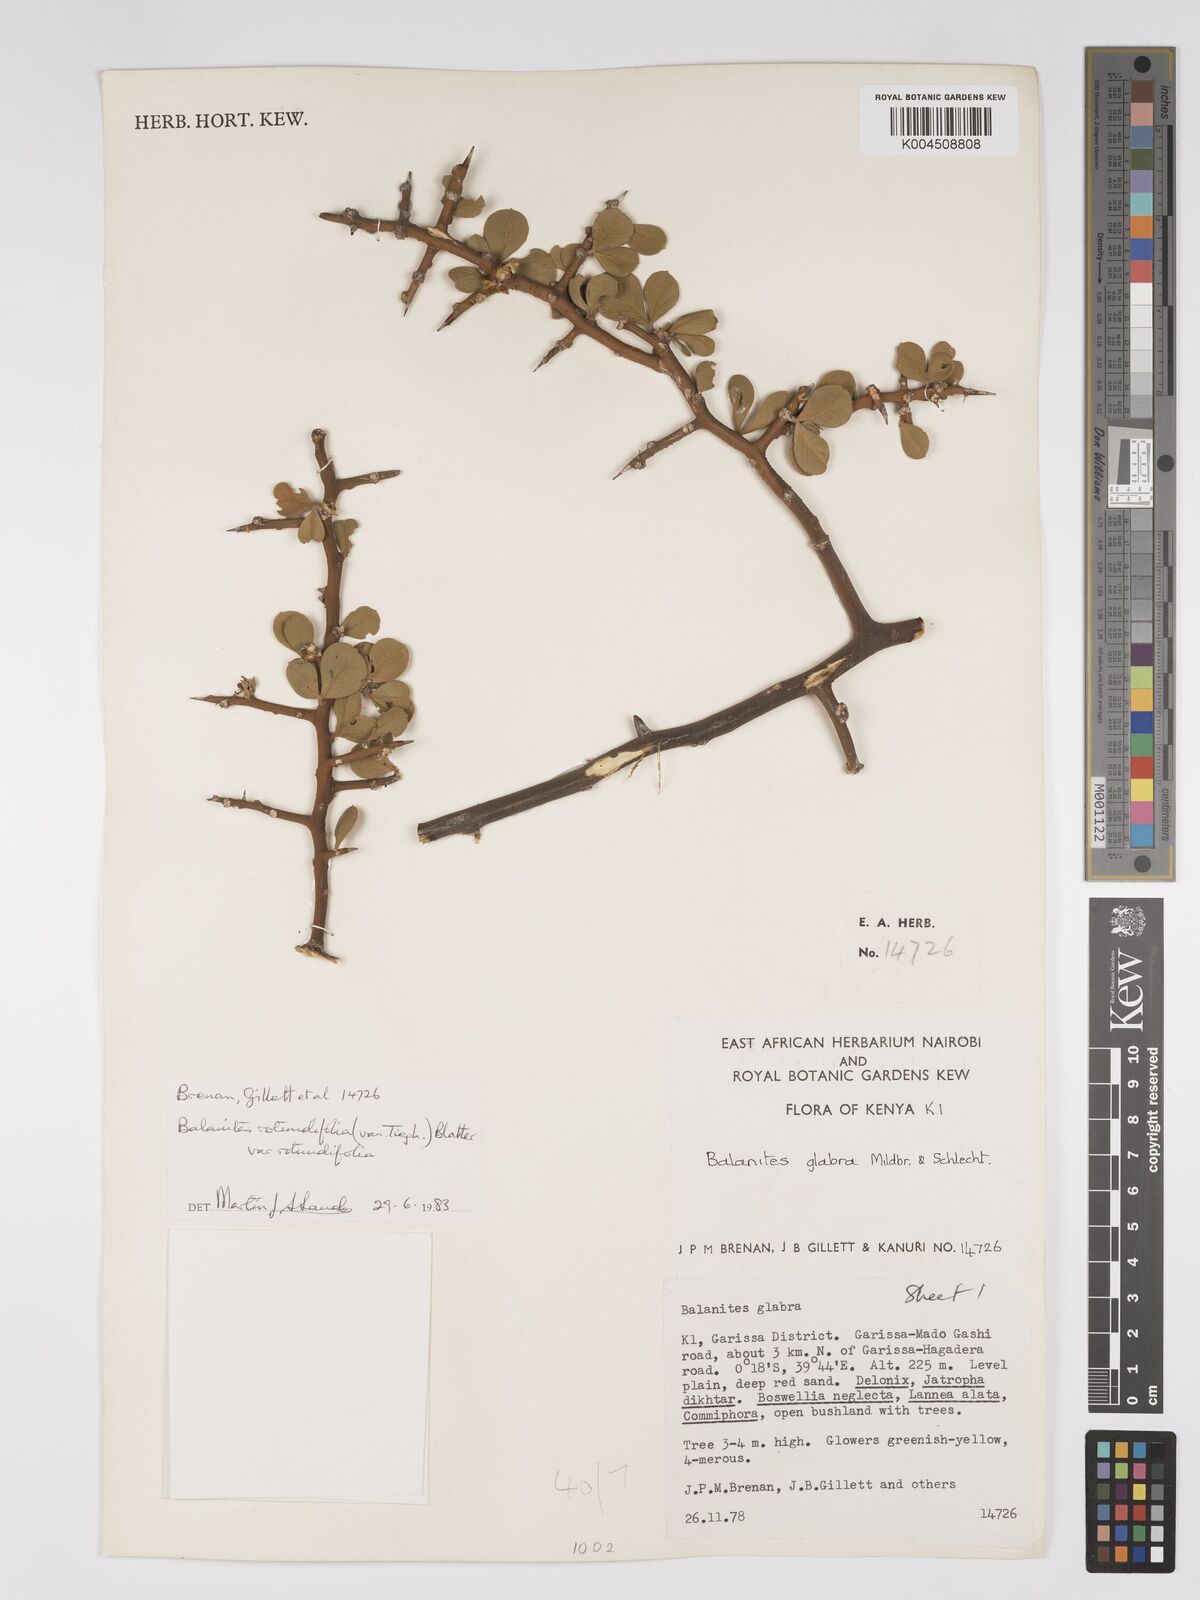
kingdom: Plantae
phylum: Tracheophyta
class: Magnoliopsida
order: Zygophyllales
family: Zygophyllaceae
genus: Balanites
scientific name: Balanites rotundifolia
